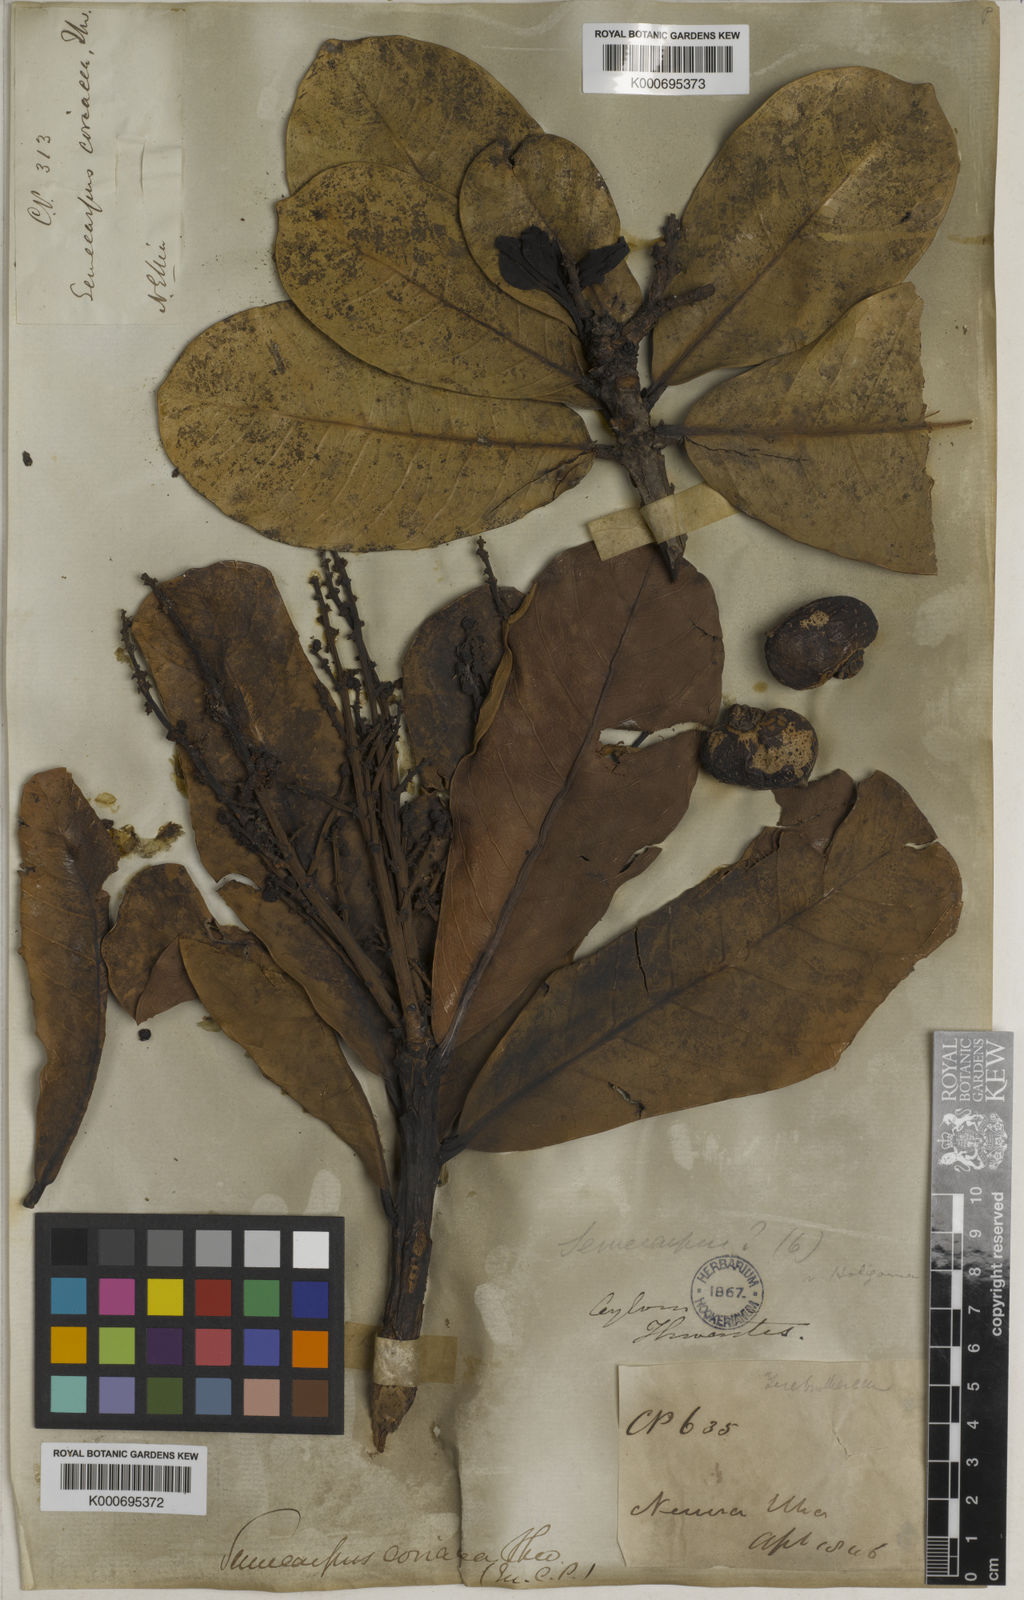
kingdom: Plantae
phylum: Tracheophyta
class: Magnoliopsida
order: Sapindales
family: Anacardiaceae
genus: Semecarpus
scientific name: Semecarpus coriaceus
